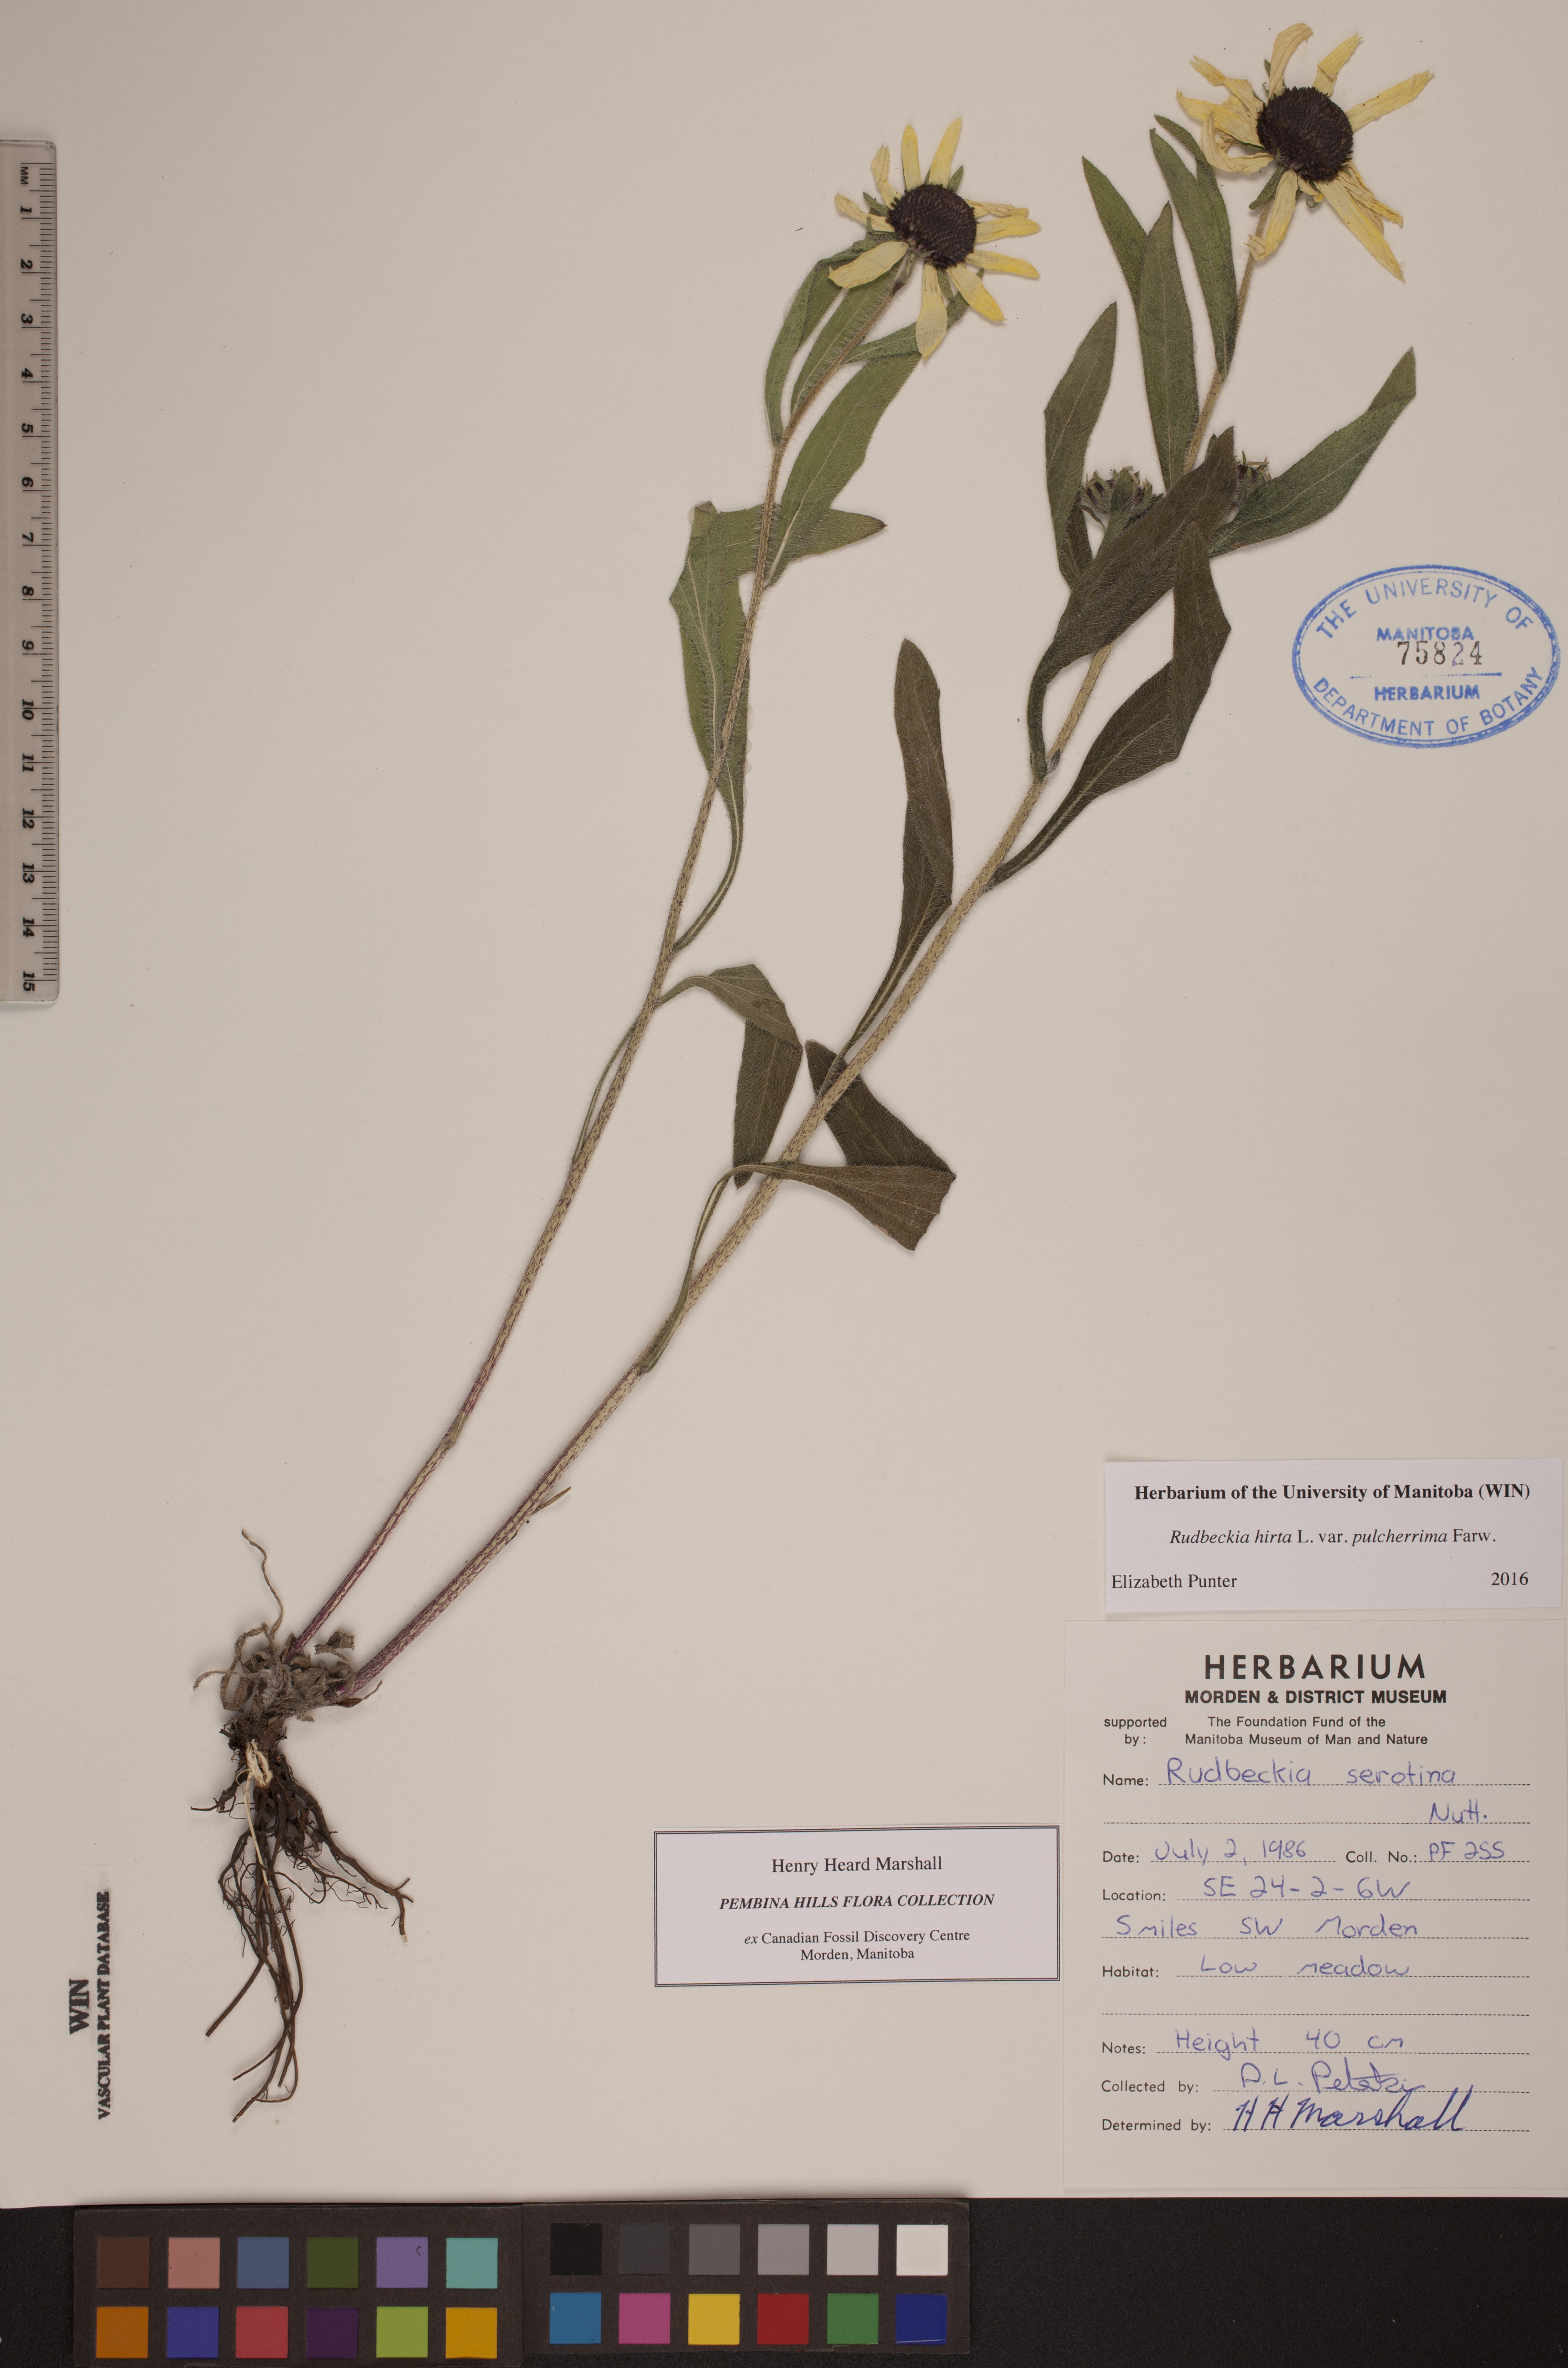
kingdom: Plantae
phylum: Tracheophyta
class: Magnoliopsida
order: Asterales
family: Asteraceae
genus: Rudbeckia
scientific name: Rudbeckia hirta
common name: Black-eyed-susan
